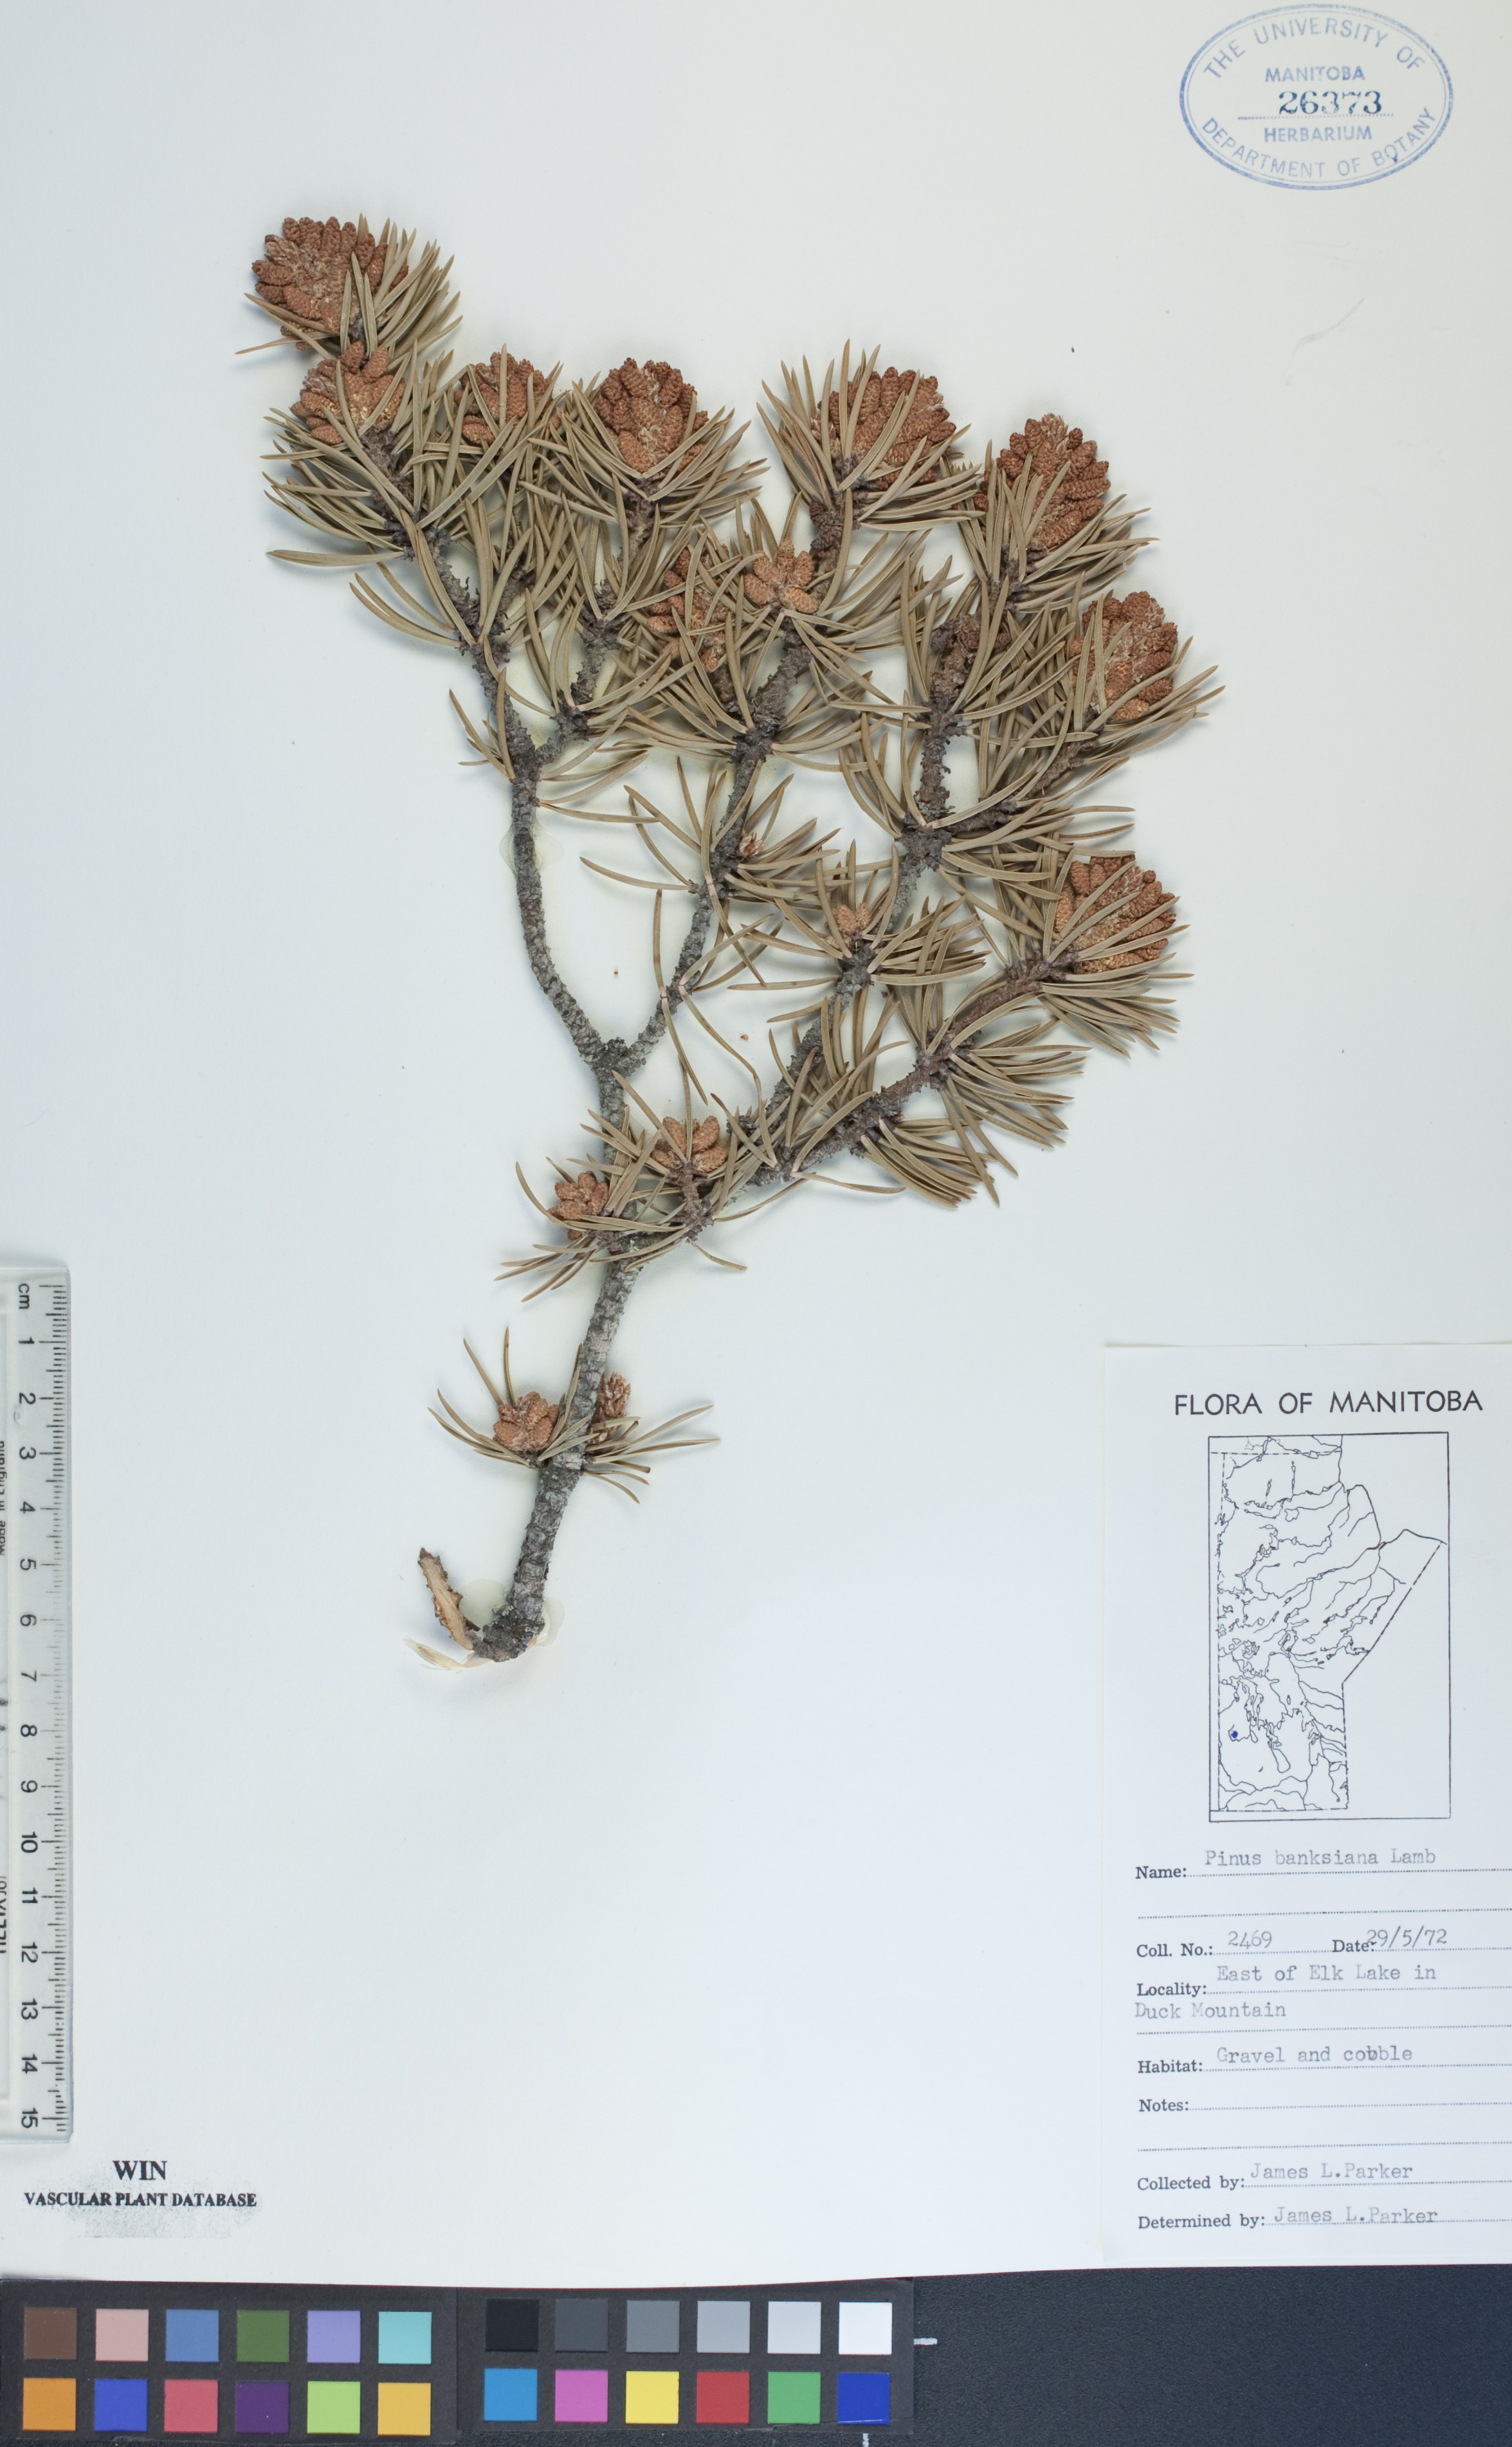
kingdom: Plantae
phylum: Tracheophyta
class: Pinopsida
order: Pinales
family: Pinaceae
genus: Pinus
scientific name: Pinus banksiana
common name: Jack pine
